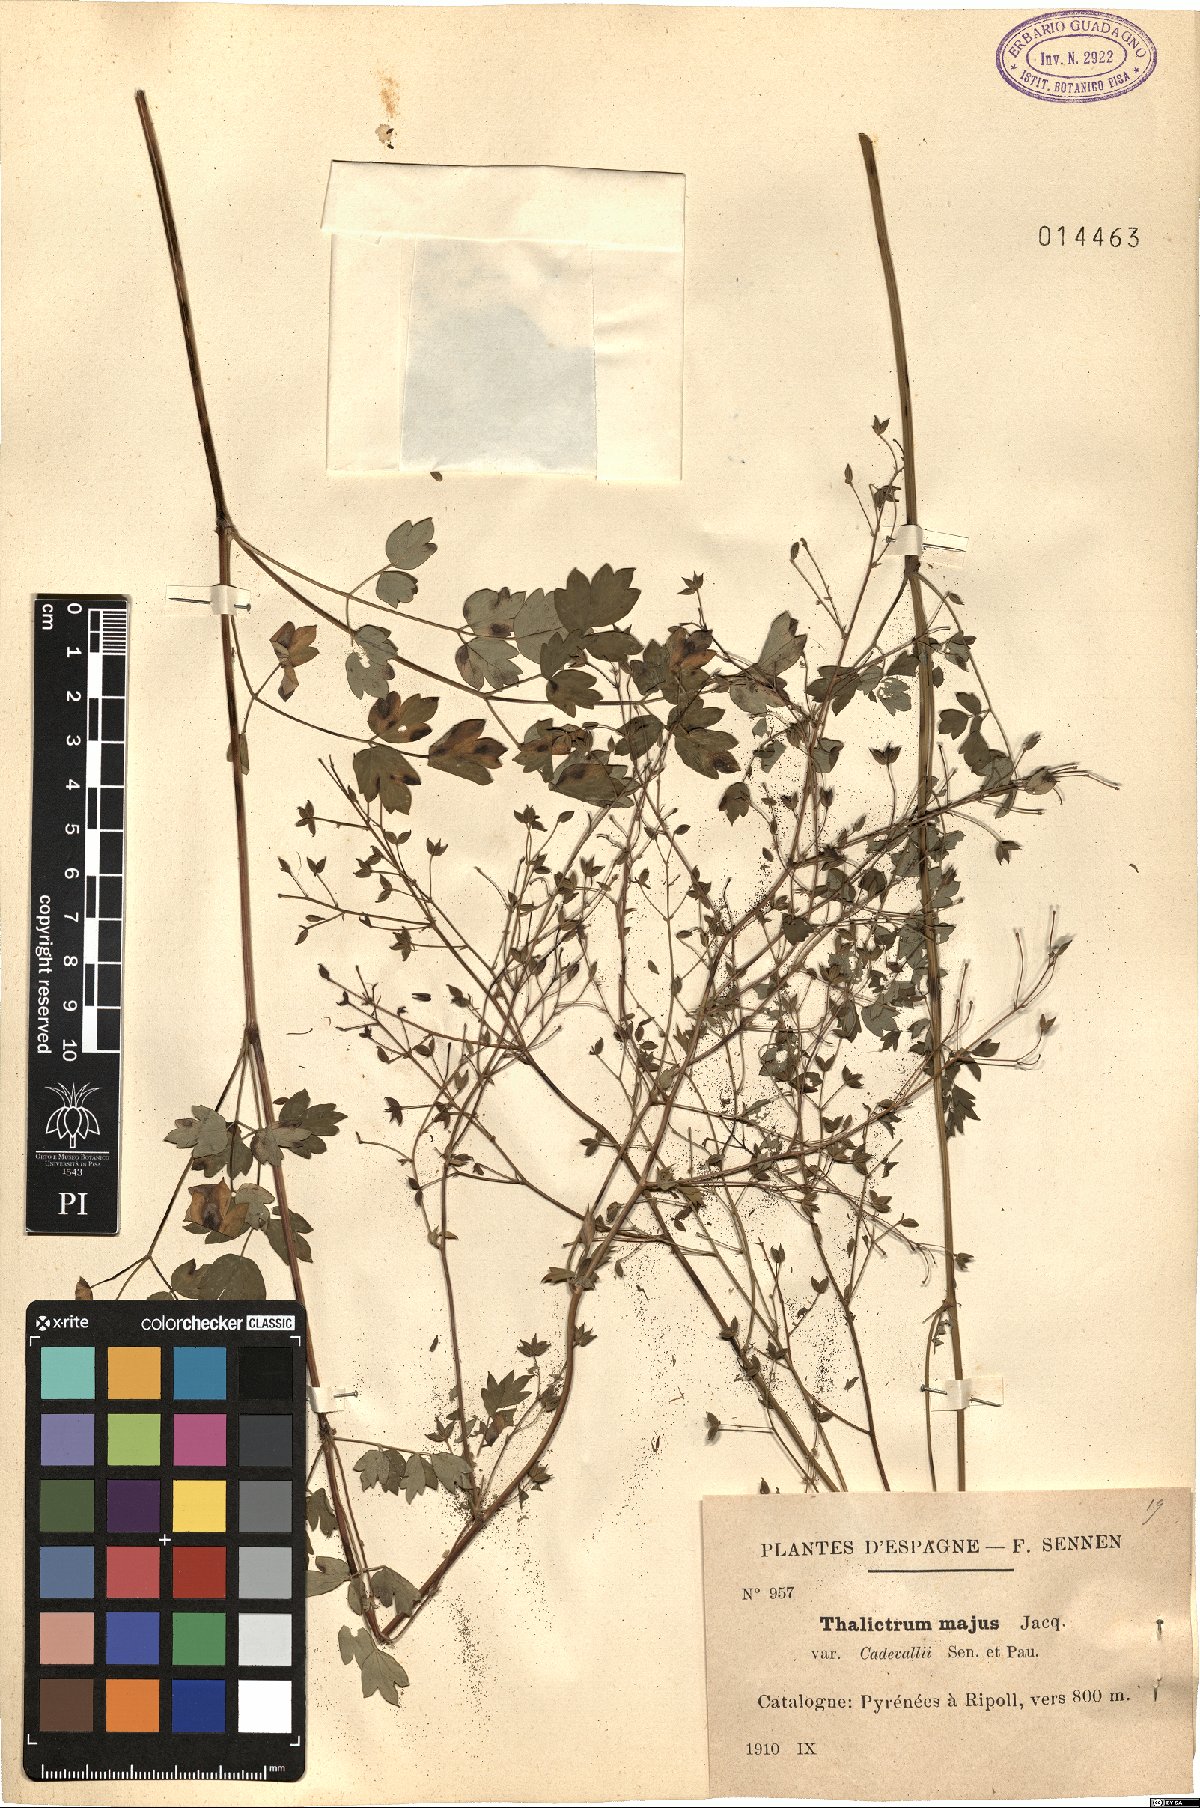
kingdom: Plantae
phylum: Tracheophyta
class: Magnoliopsida
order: Ranunculales
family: Ranunculaceae
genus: Thalictrum
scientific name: Thalictrum minus
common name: Lesser meadow-rue
